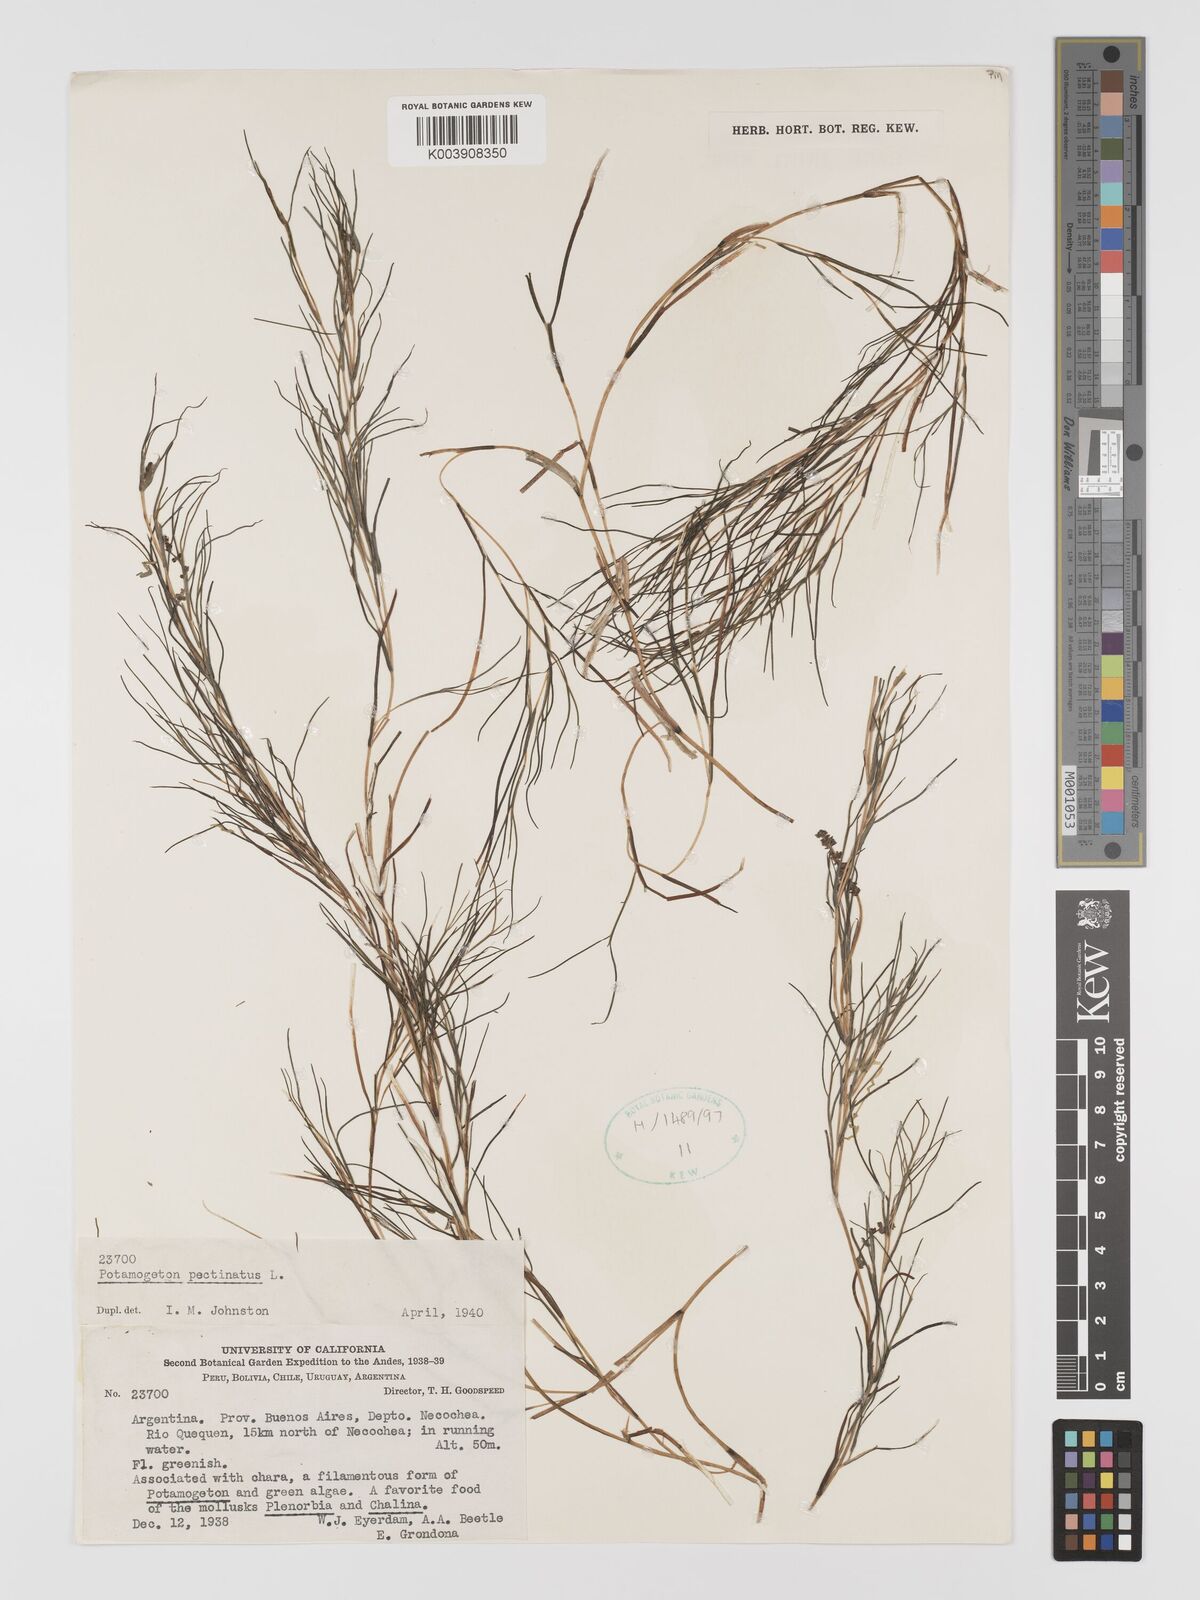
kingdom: Plantae
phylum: Tracheophyta
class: Liliopsida
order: Alismatales
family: Potamogetonaceae
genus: Stuckenia
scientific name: Stuckenia pectinata
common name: Sago pondweed
